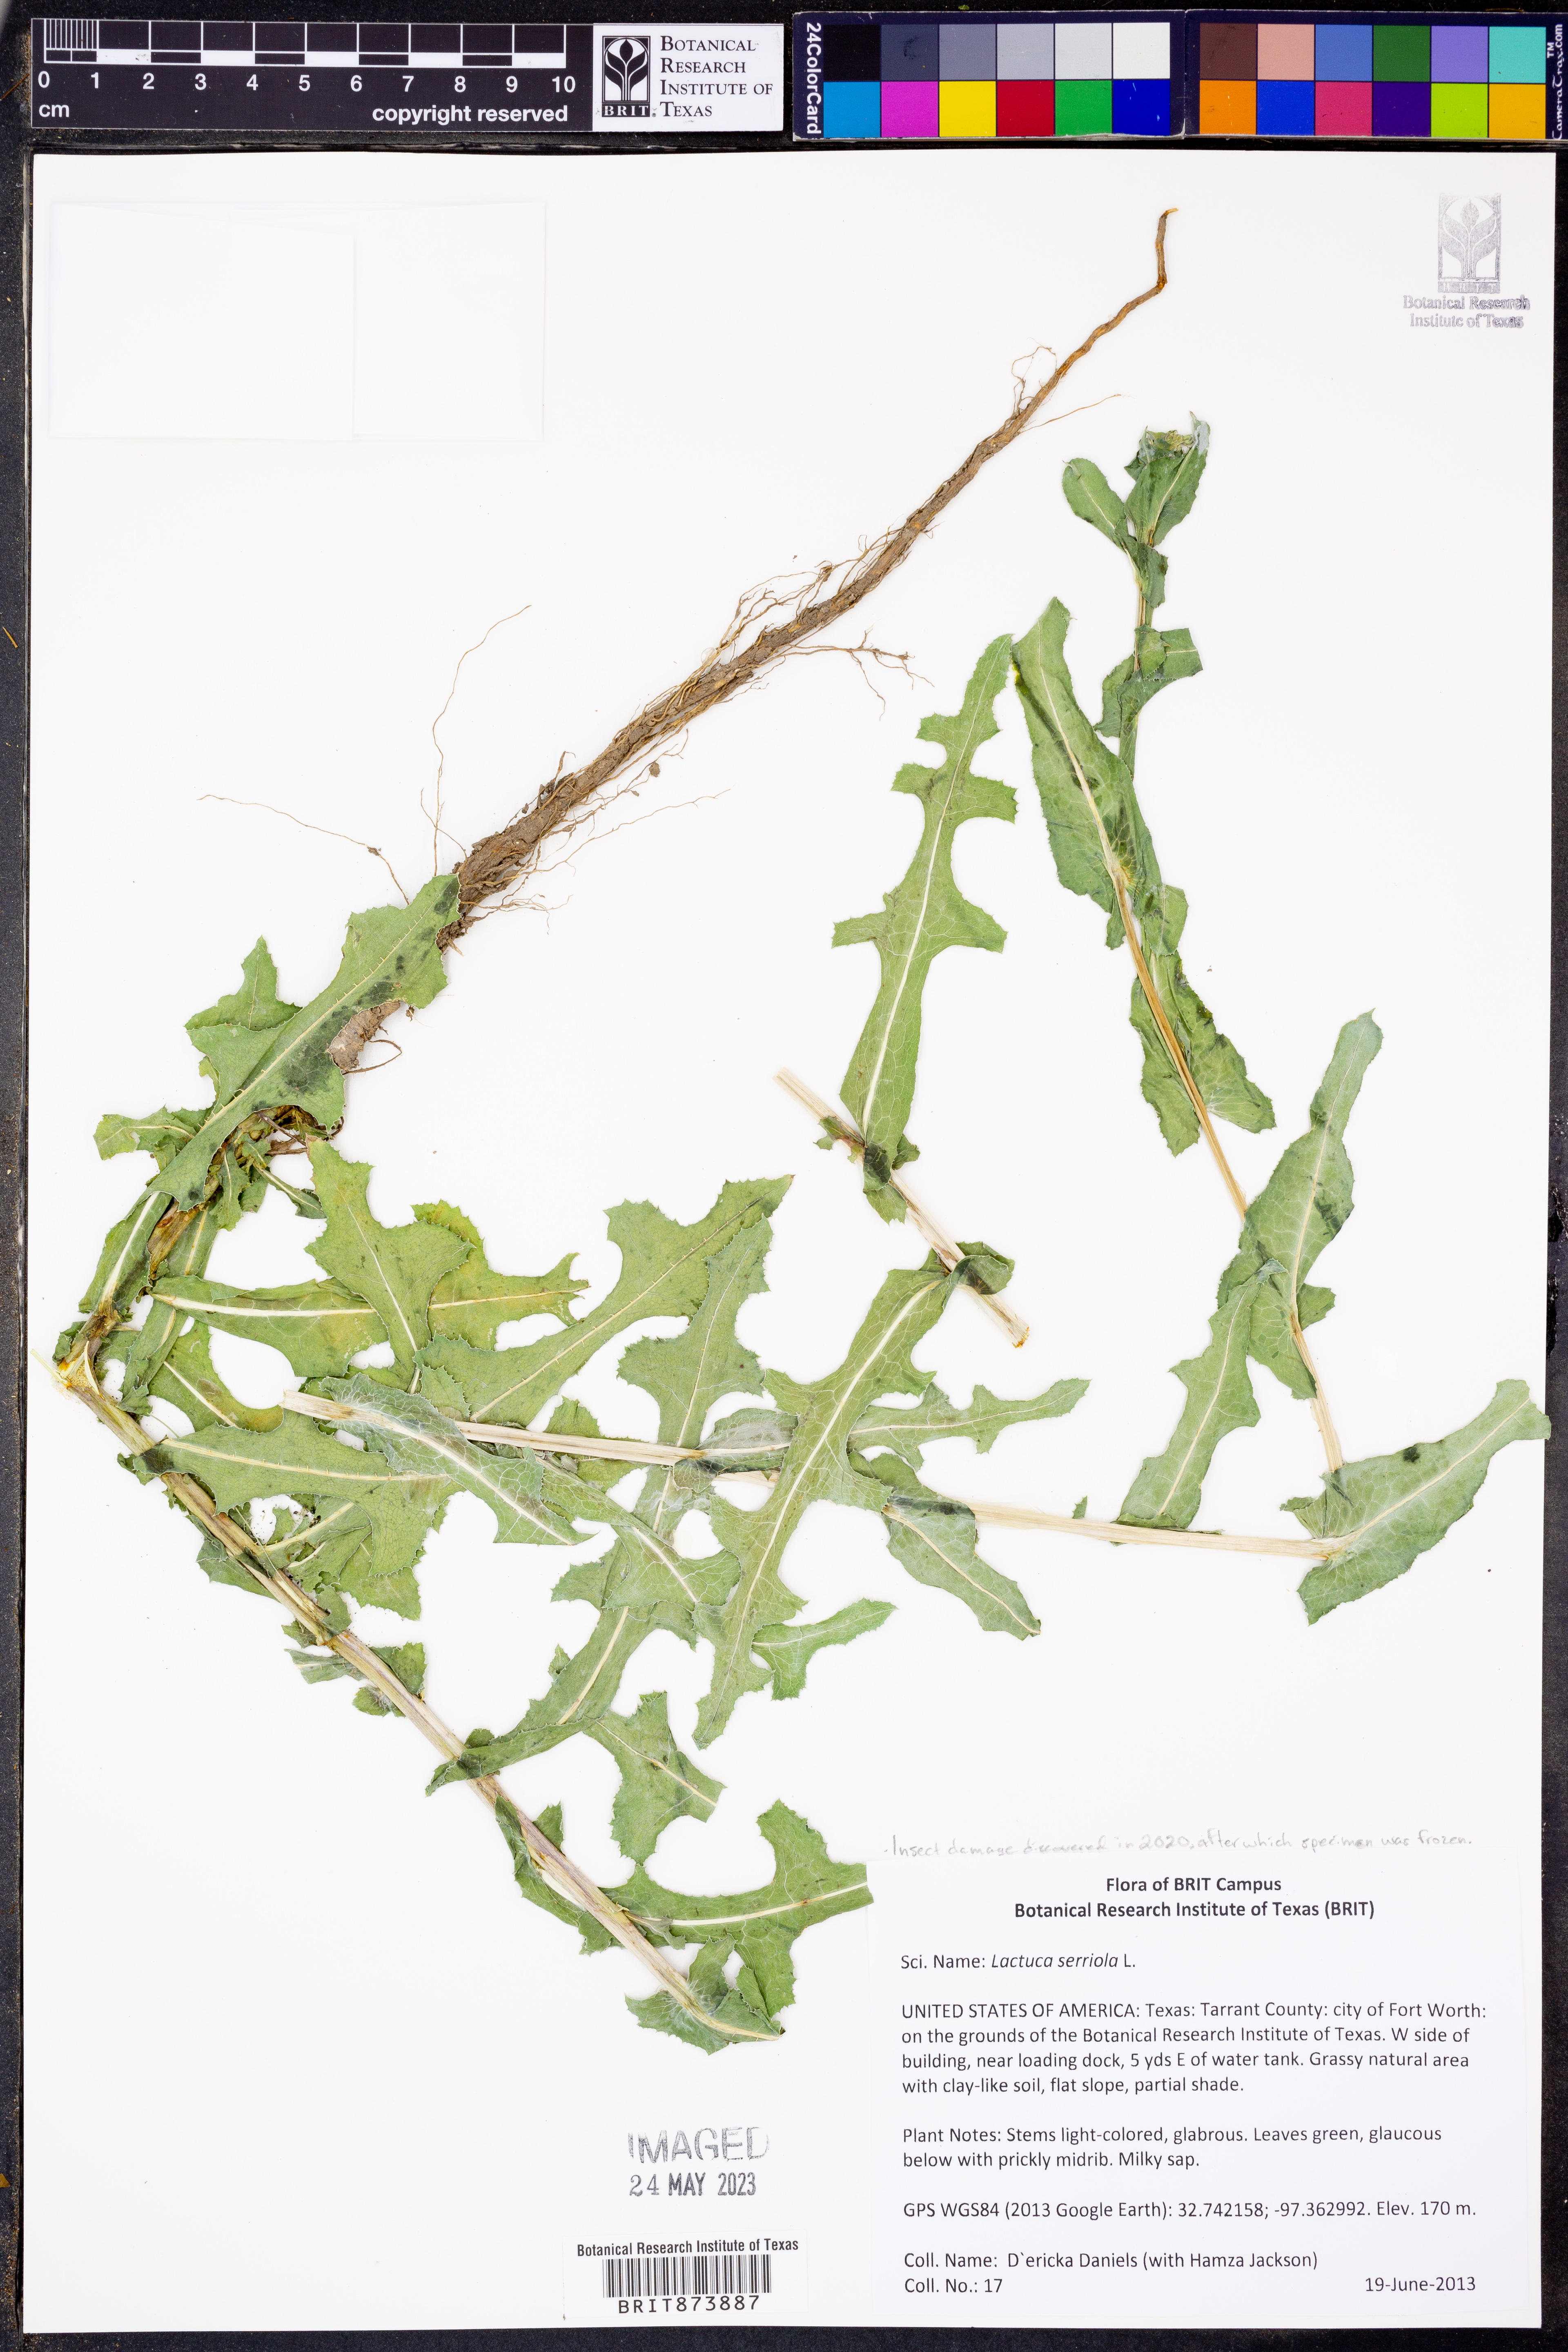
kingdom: Plantae
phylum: Tracheophyta
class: Magnoliopsida
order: Asterales
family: Asteraceae
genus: Lactuca
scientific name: Lactuca serriola
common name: Prickly lettuce
